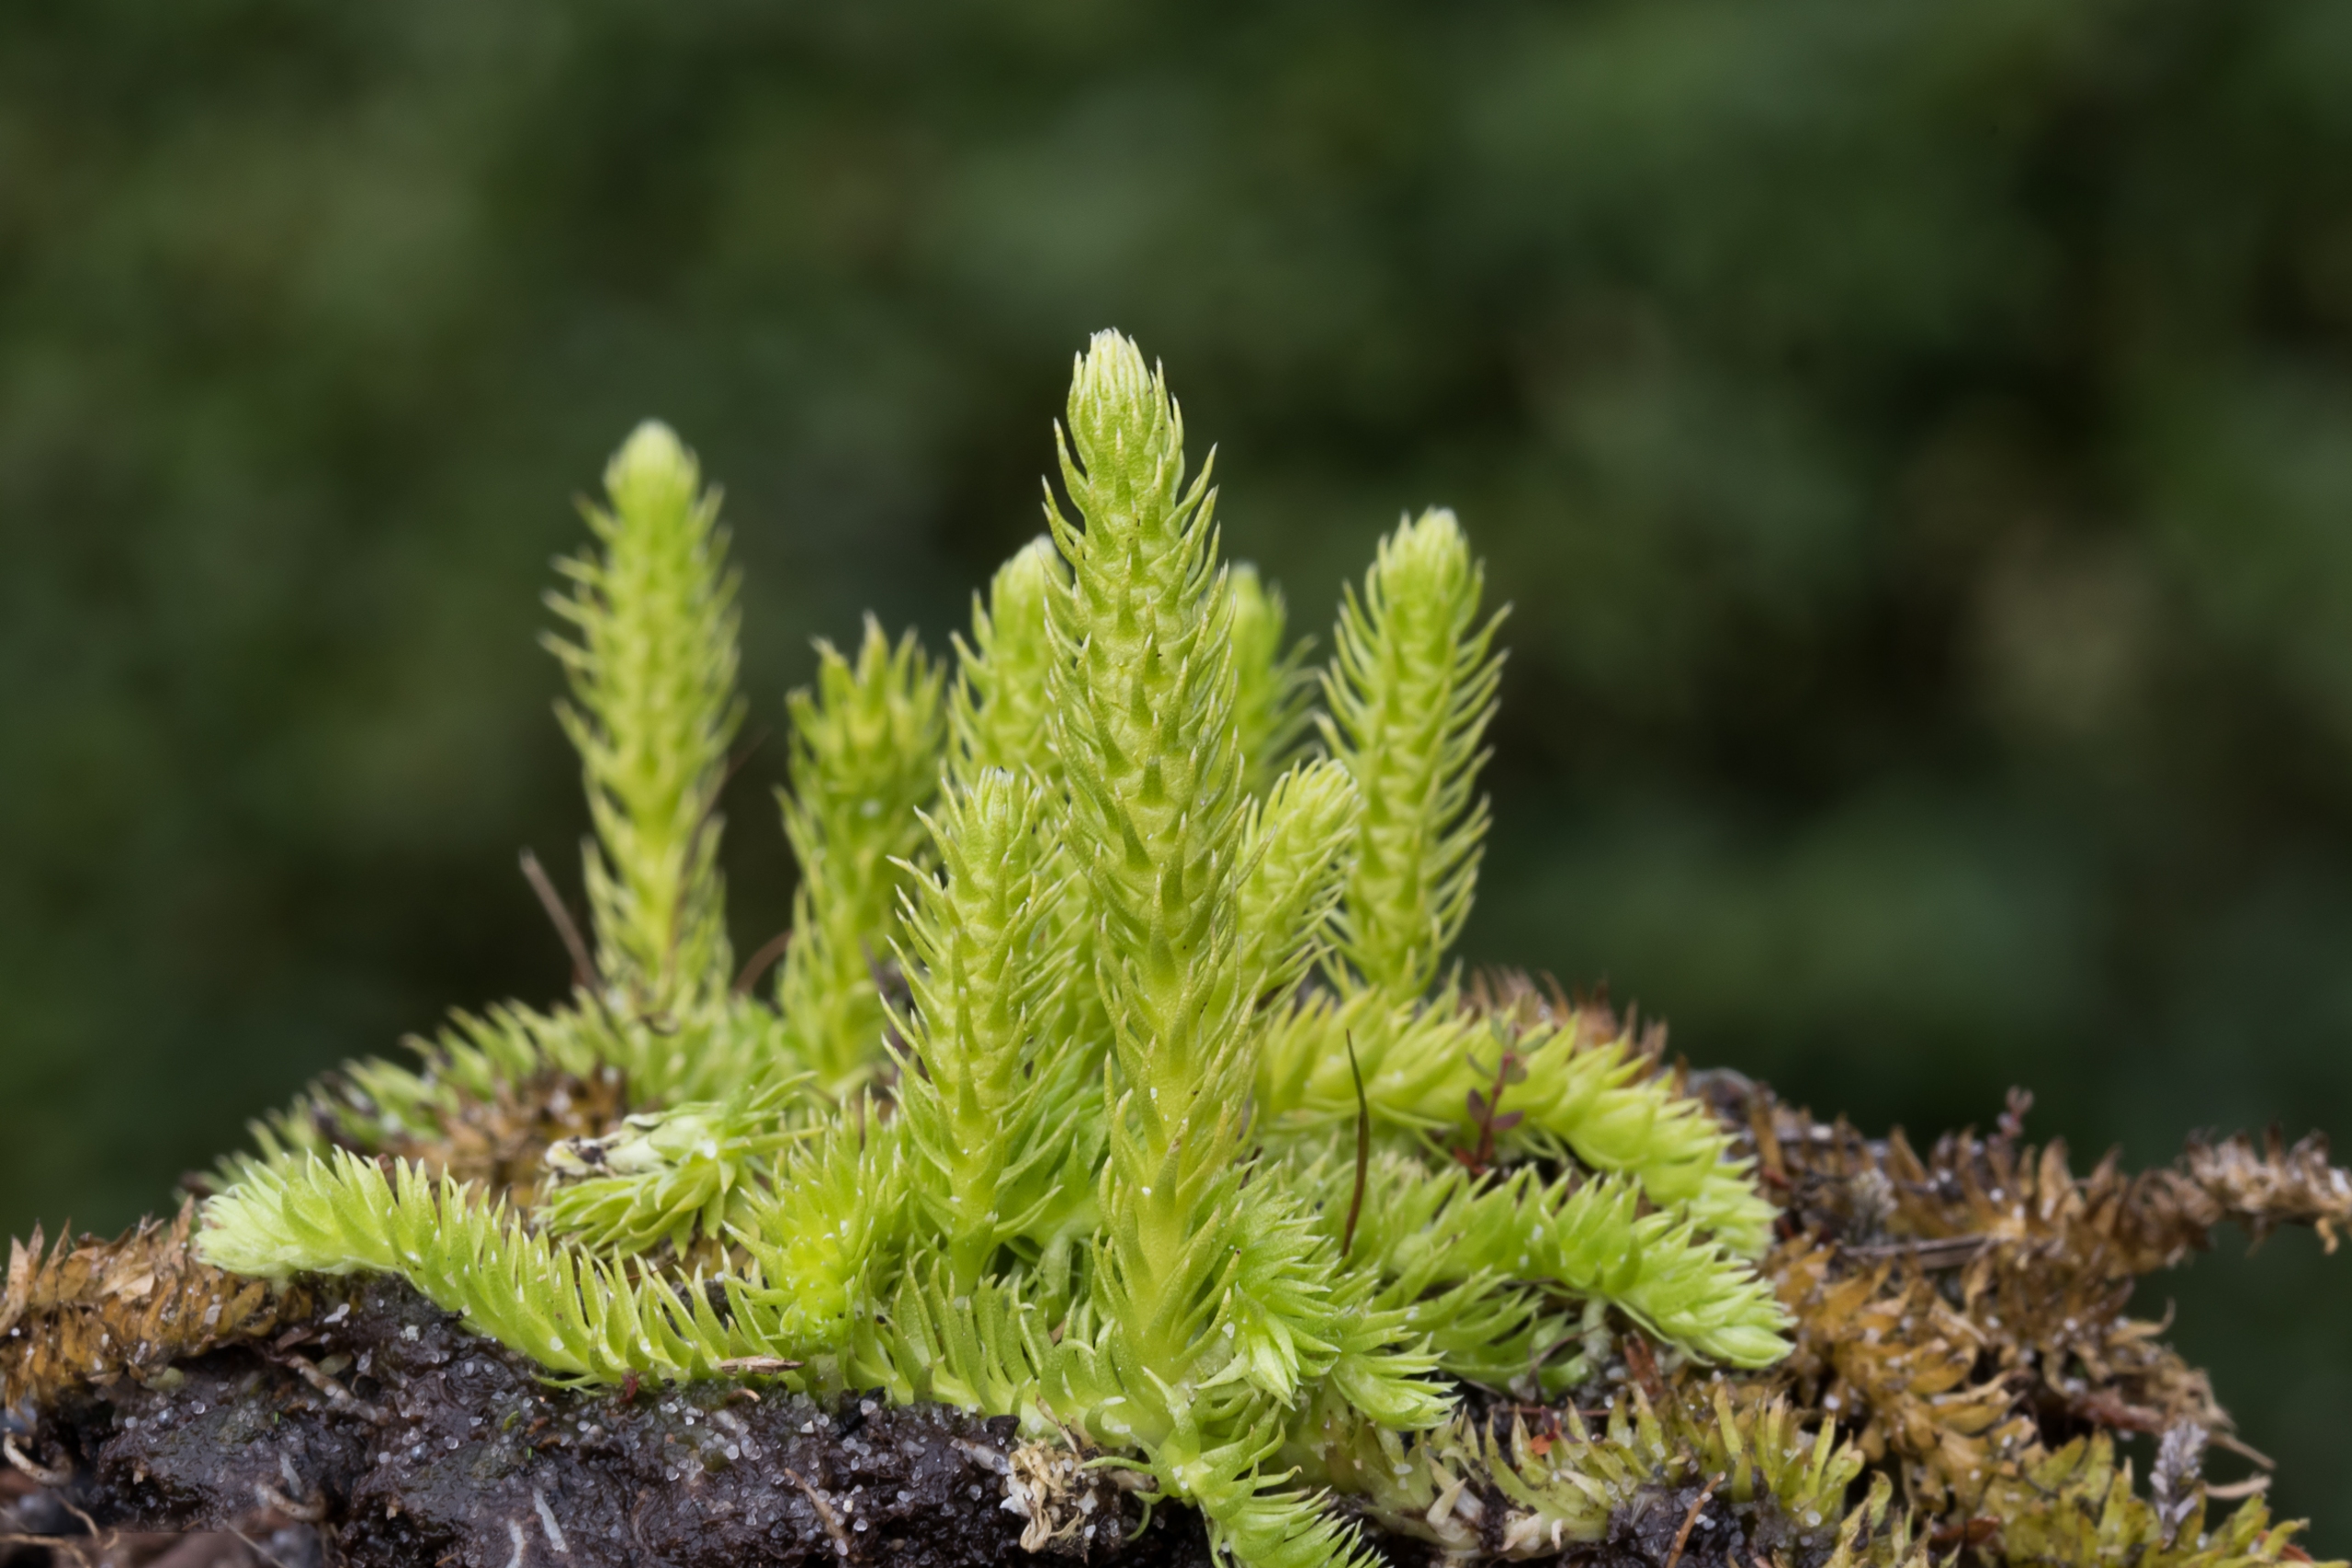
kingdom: Plantae
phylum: Tracheophyta
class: Lycopodiopsida
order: Lycopodiales
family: Lycopodiaceae
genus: Lycopodiella
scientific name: Lycopodiella inundata
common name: Liden ulvefod
